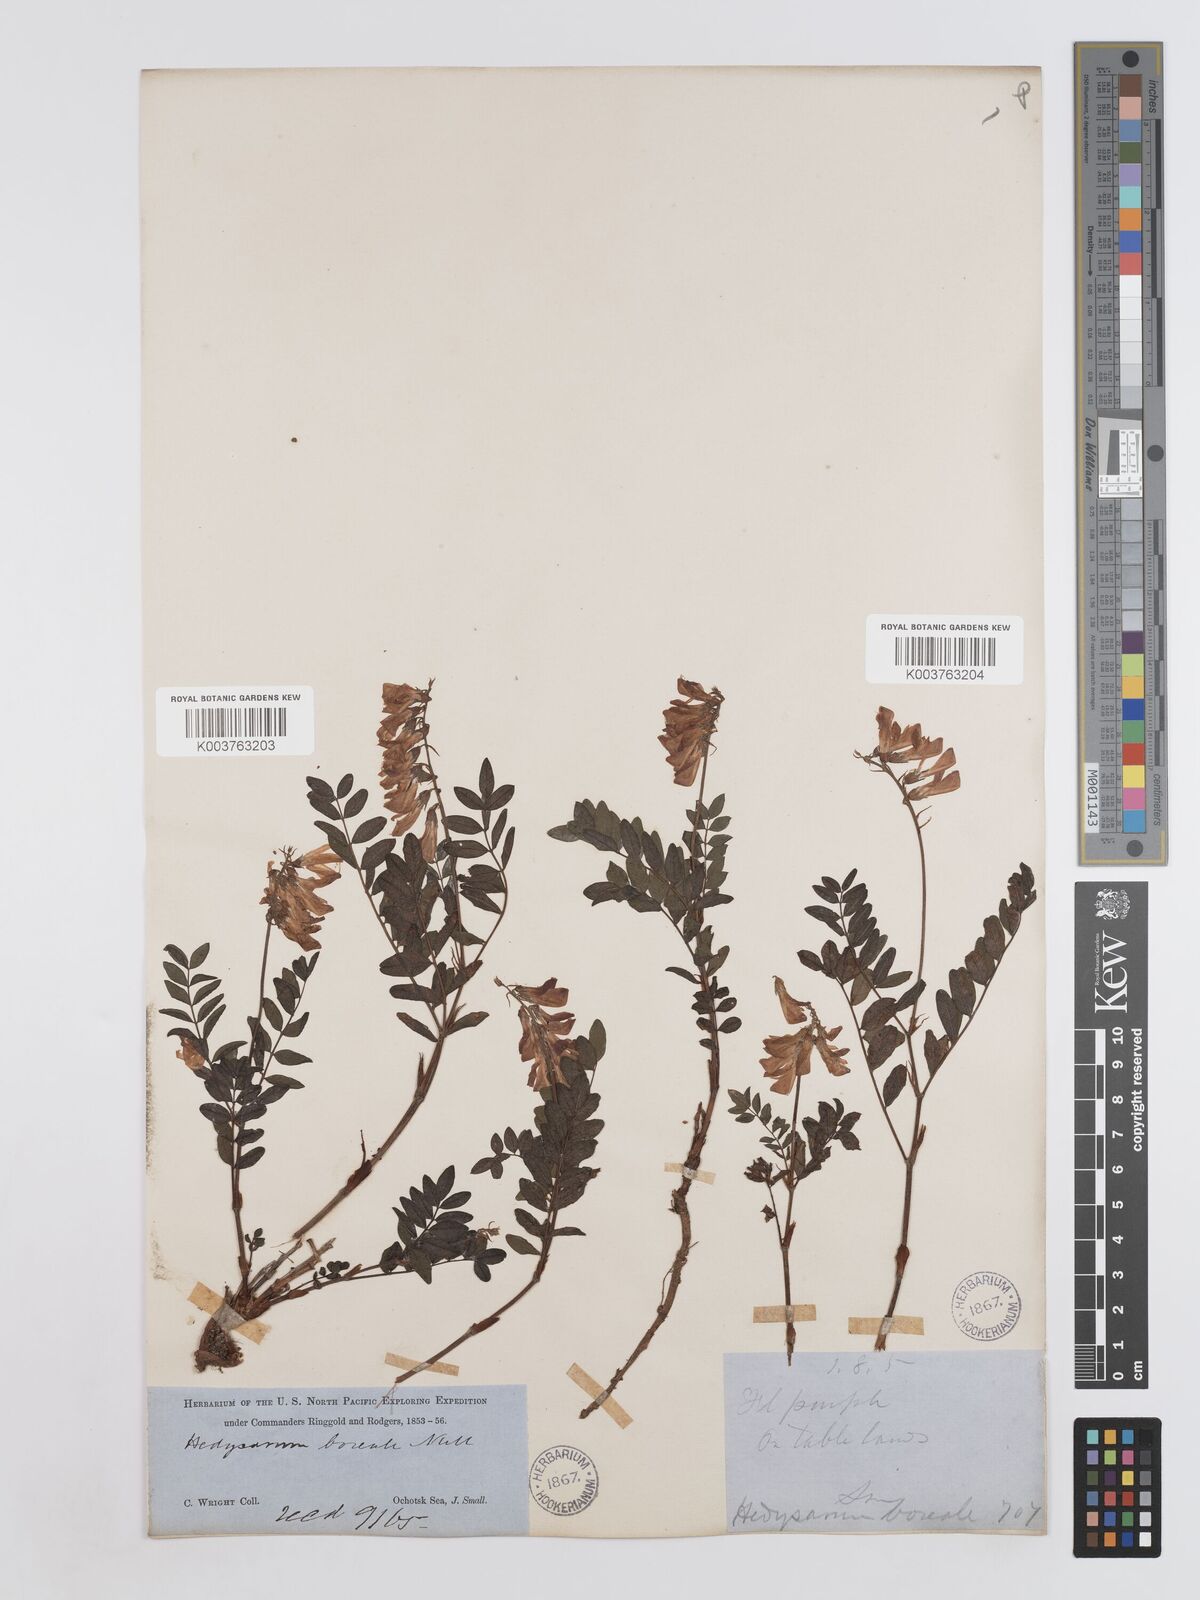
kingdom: Plantae
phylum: Tracheophyta
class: Magnoliopsida
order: Fabales
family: Fabaceae
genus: Hedysarum
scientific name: Hedysarum boreale
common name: Northern sweet-vetch
